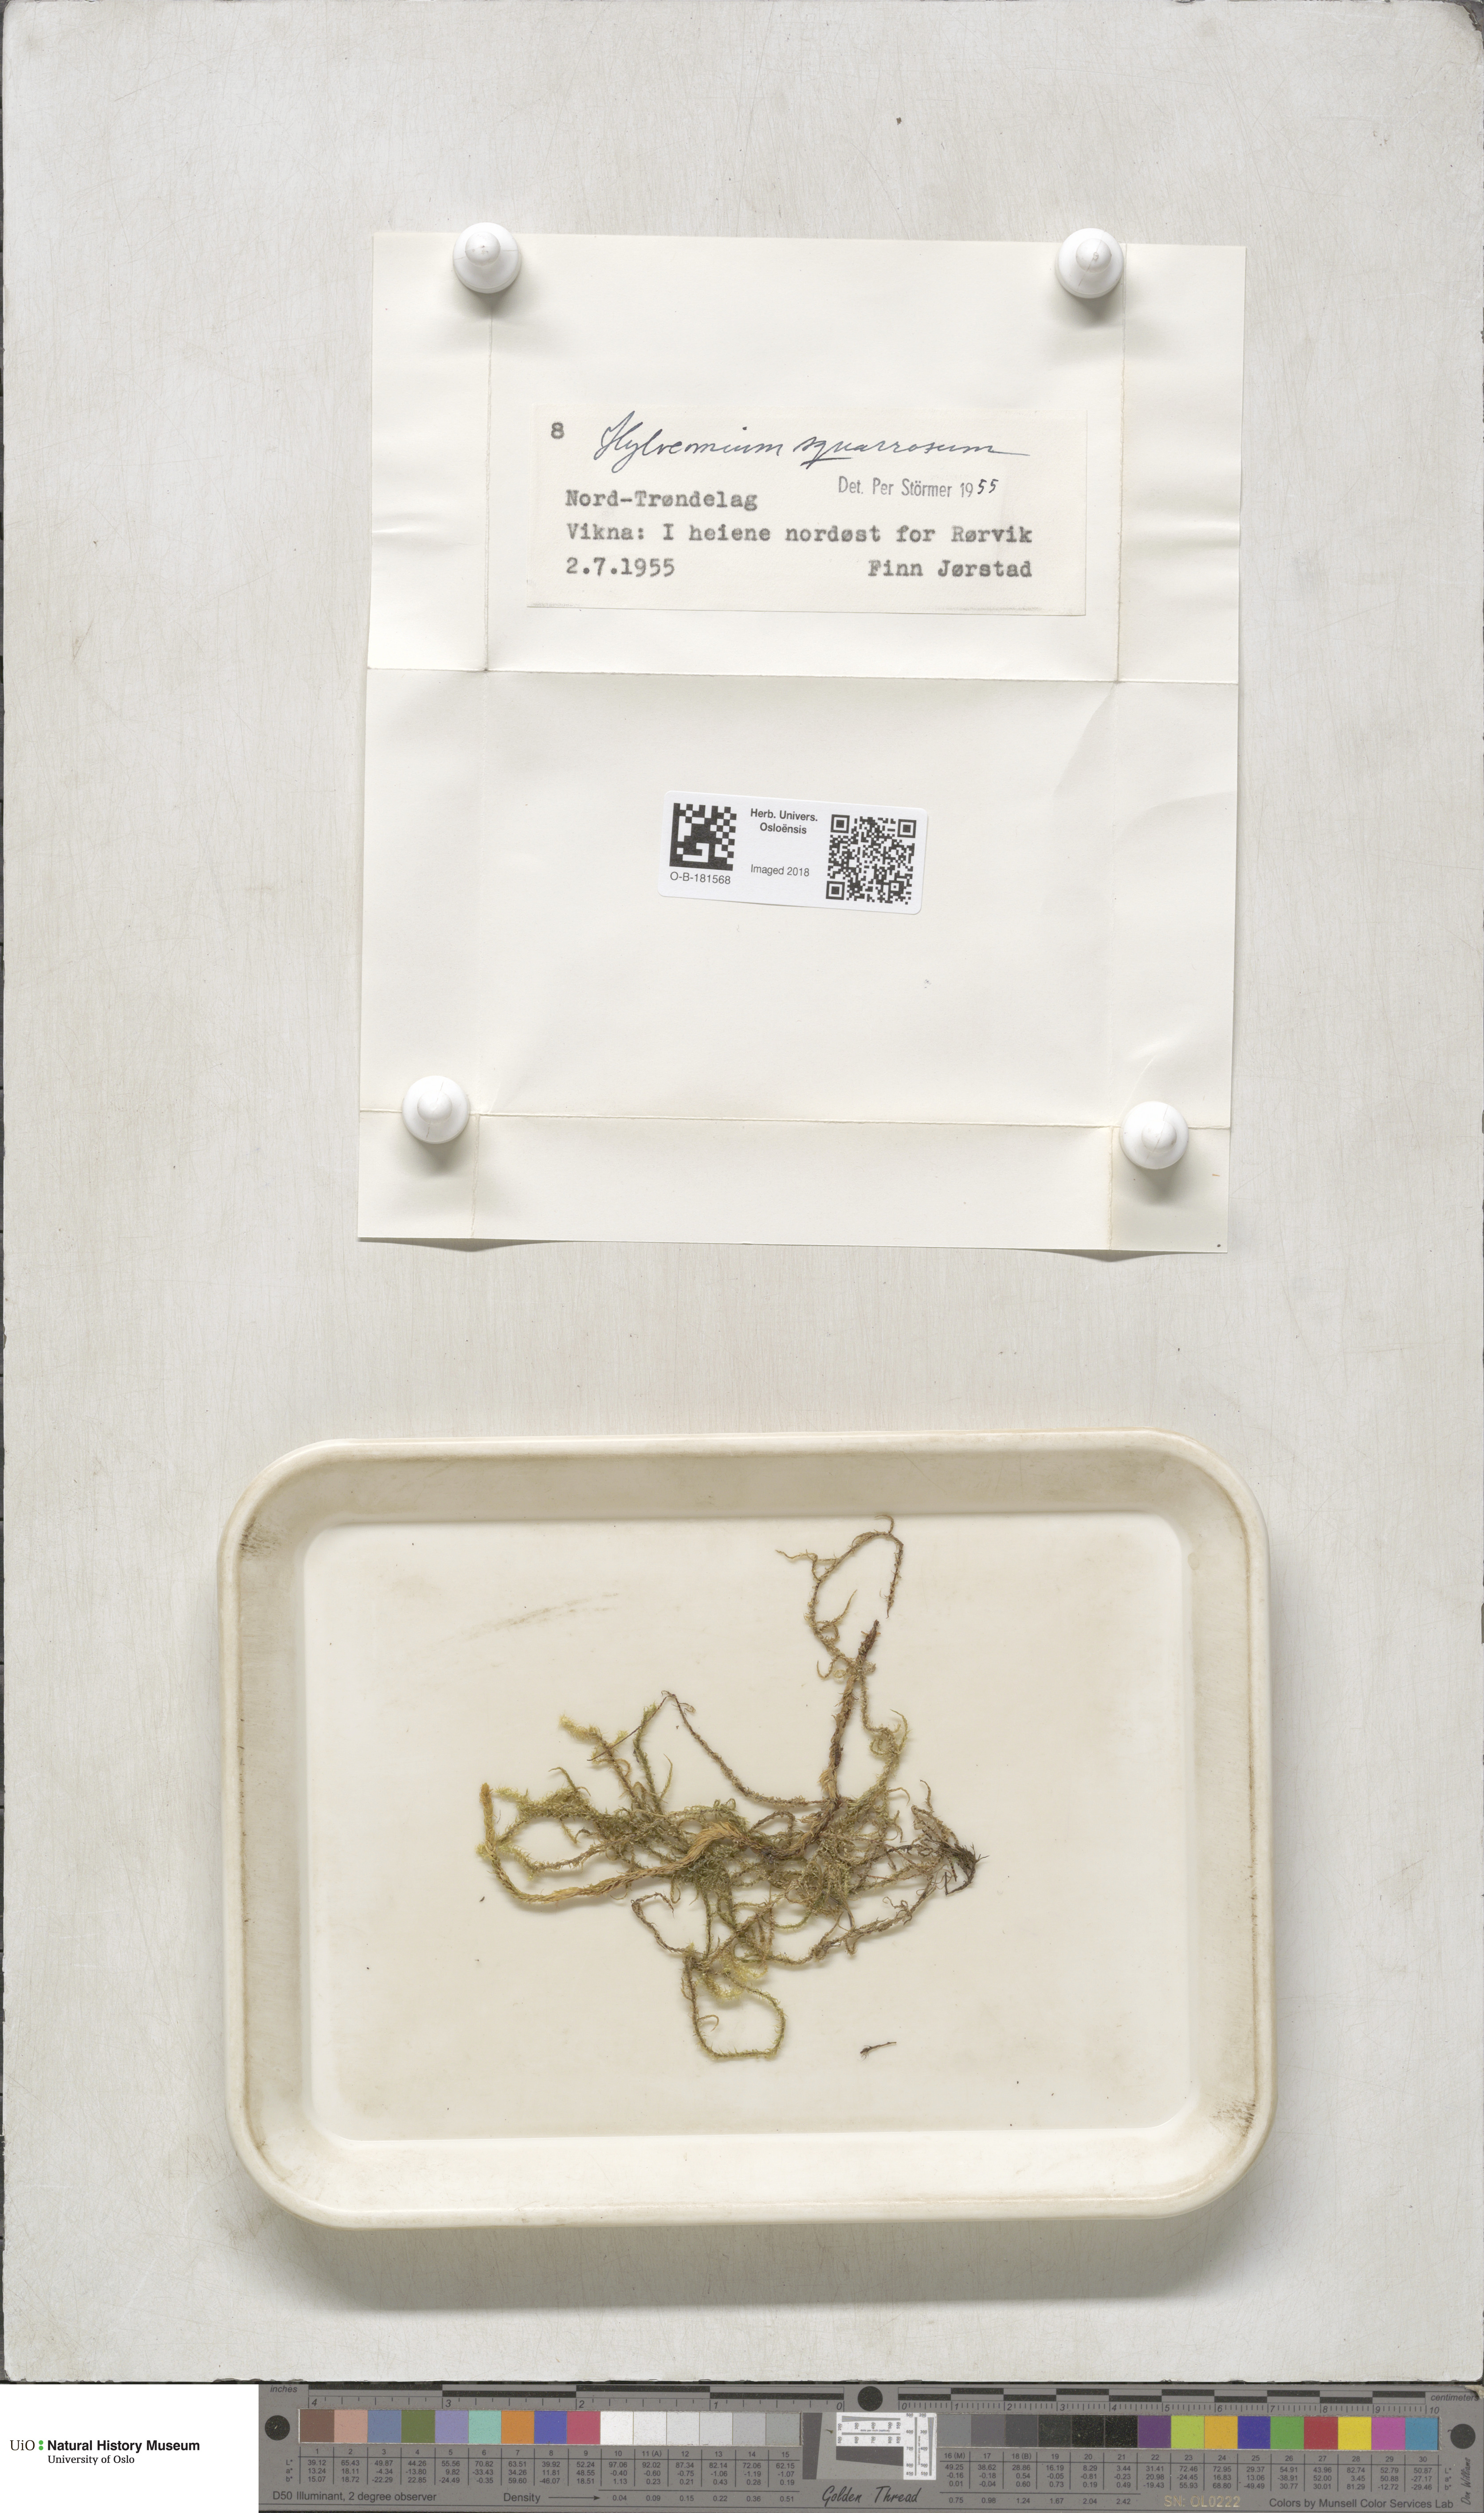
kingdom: Plantae
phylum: Bryophyta
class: Bryopsida
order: Hypnales
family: Hylocomiaceae
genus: Rhytidiadelphus
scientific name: Rhytidiadelphus squarrosus
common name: Springy turf-moss
